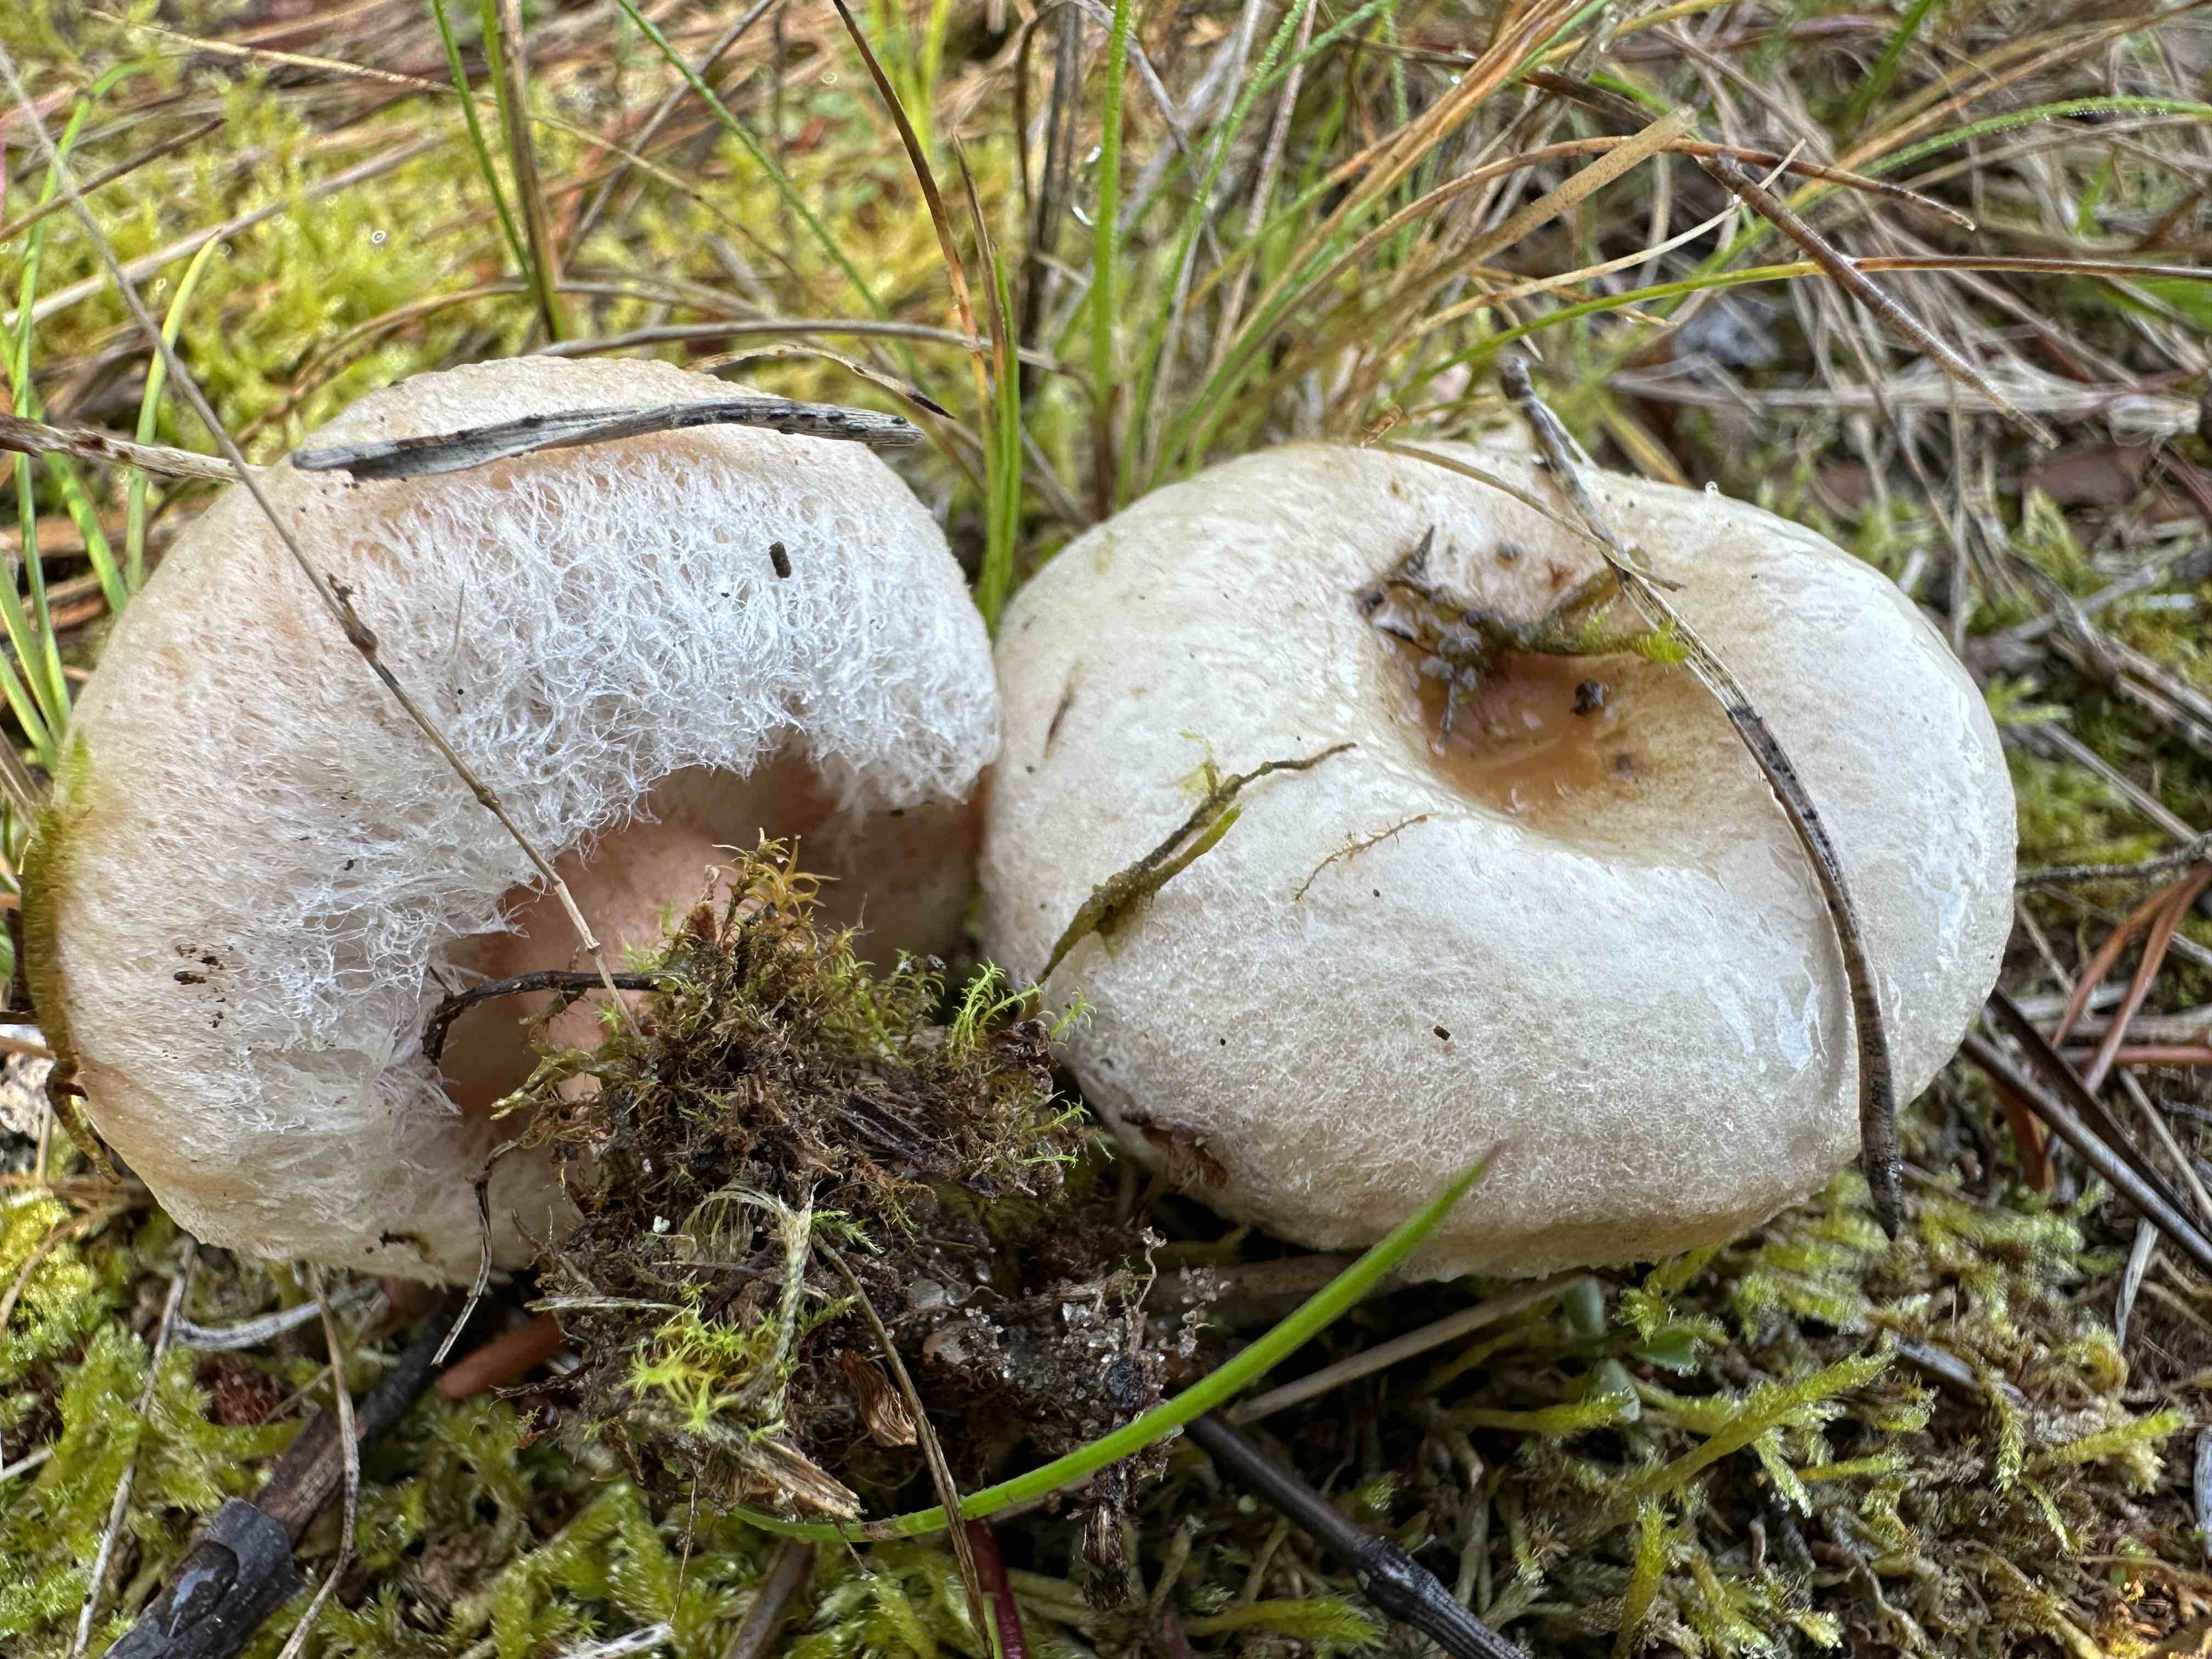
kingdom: Fungi
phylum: Basidiomycota
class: Agaricomycetes
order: Russulales
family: Russulaceae
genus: Lactarius
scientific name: Lactarius pubescens
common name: dunet mælkehat
